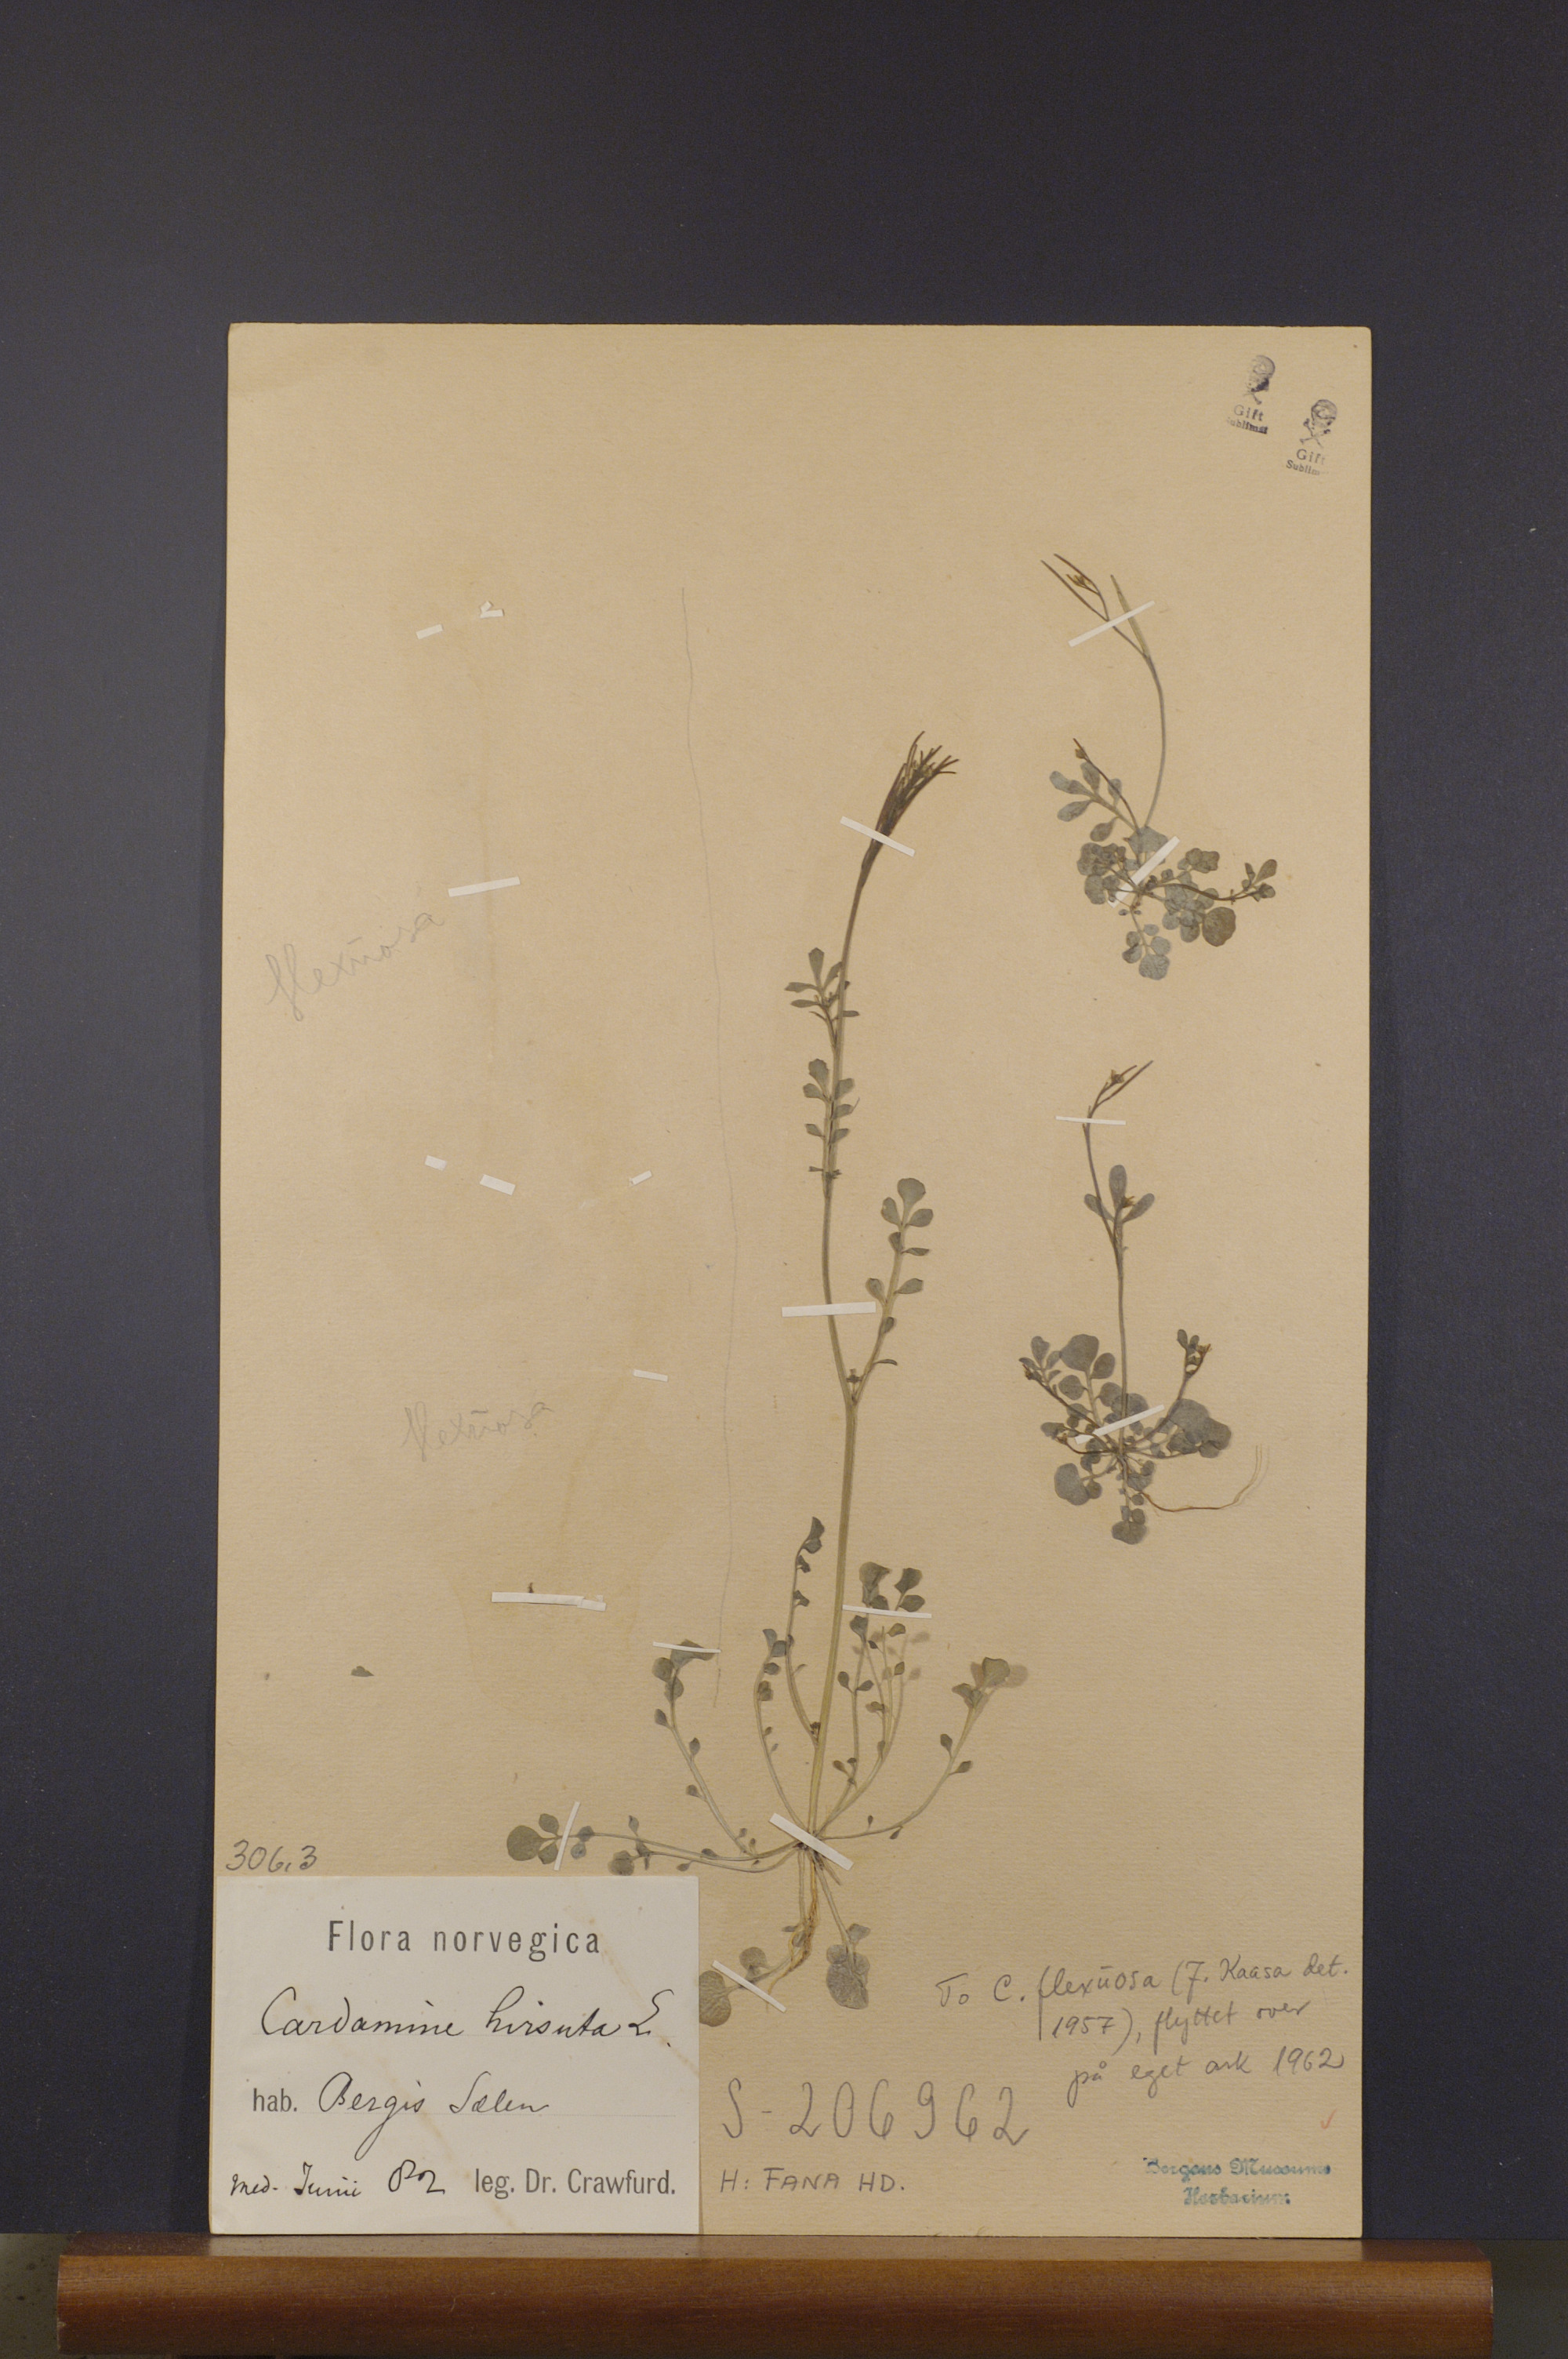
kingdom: Plantae
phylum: Tracheophyta
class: Magnoliopsida
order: Brassicales
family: Brassicaceae
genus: Cardamine
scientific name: Cardamine hirsuta
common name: Hairy bittercress
